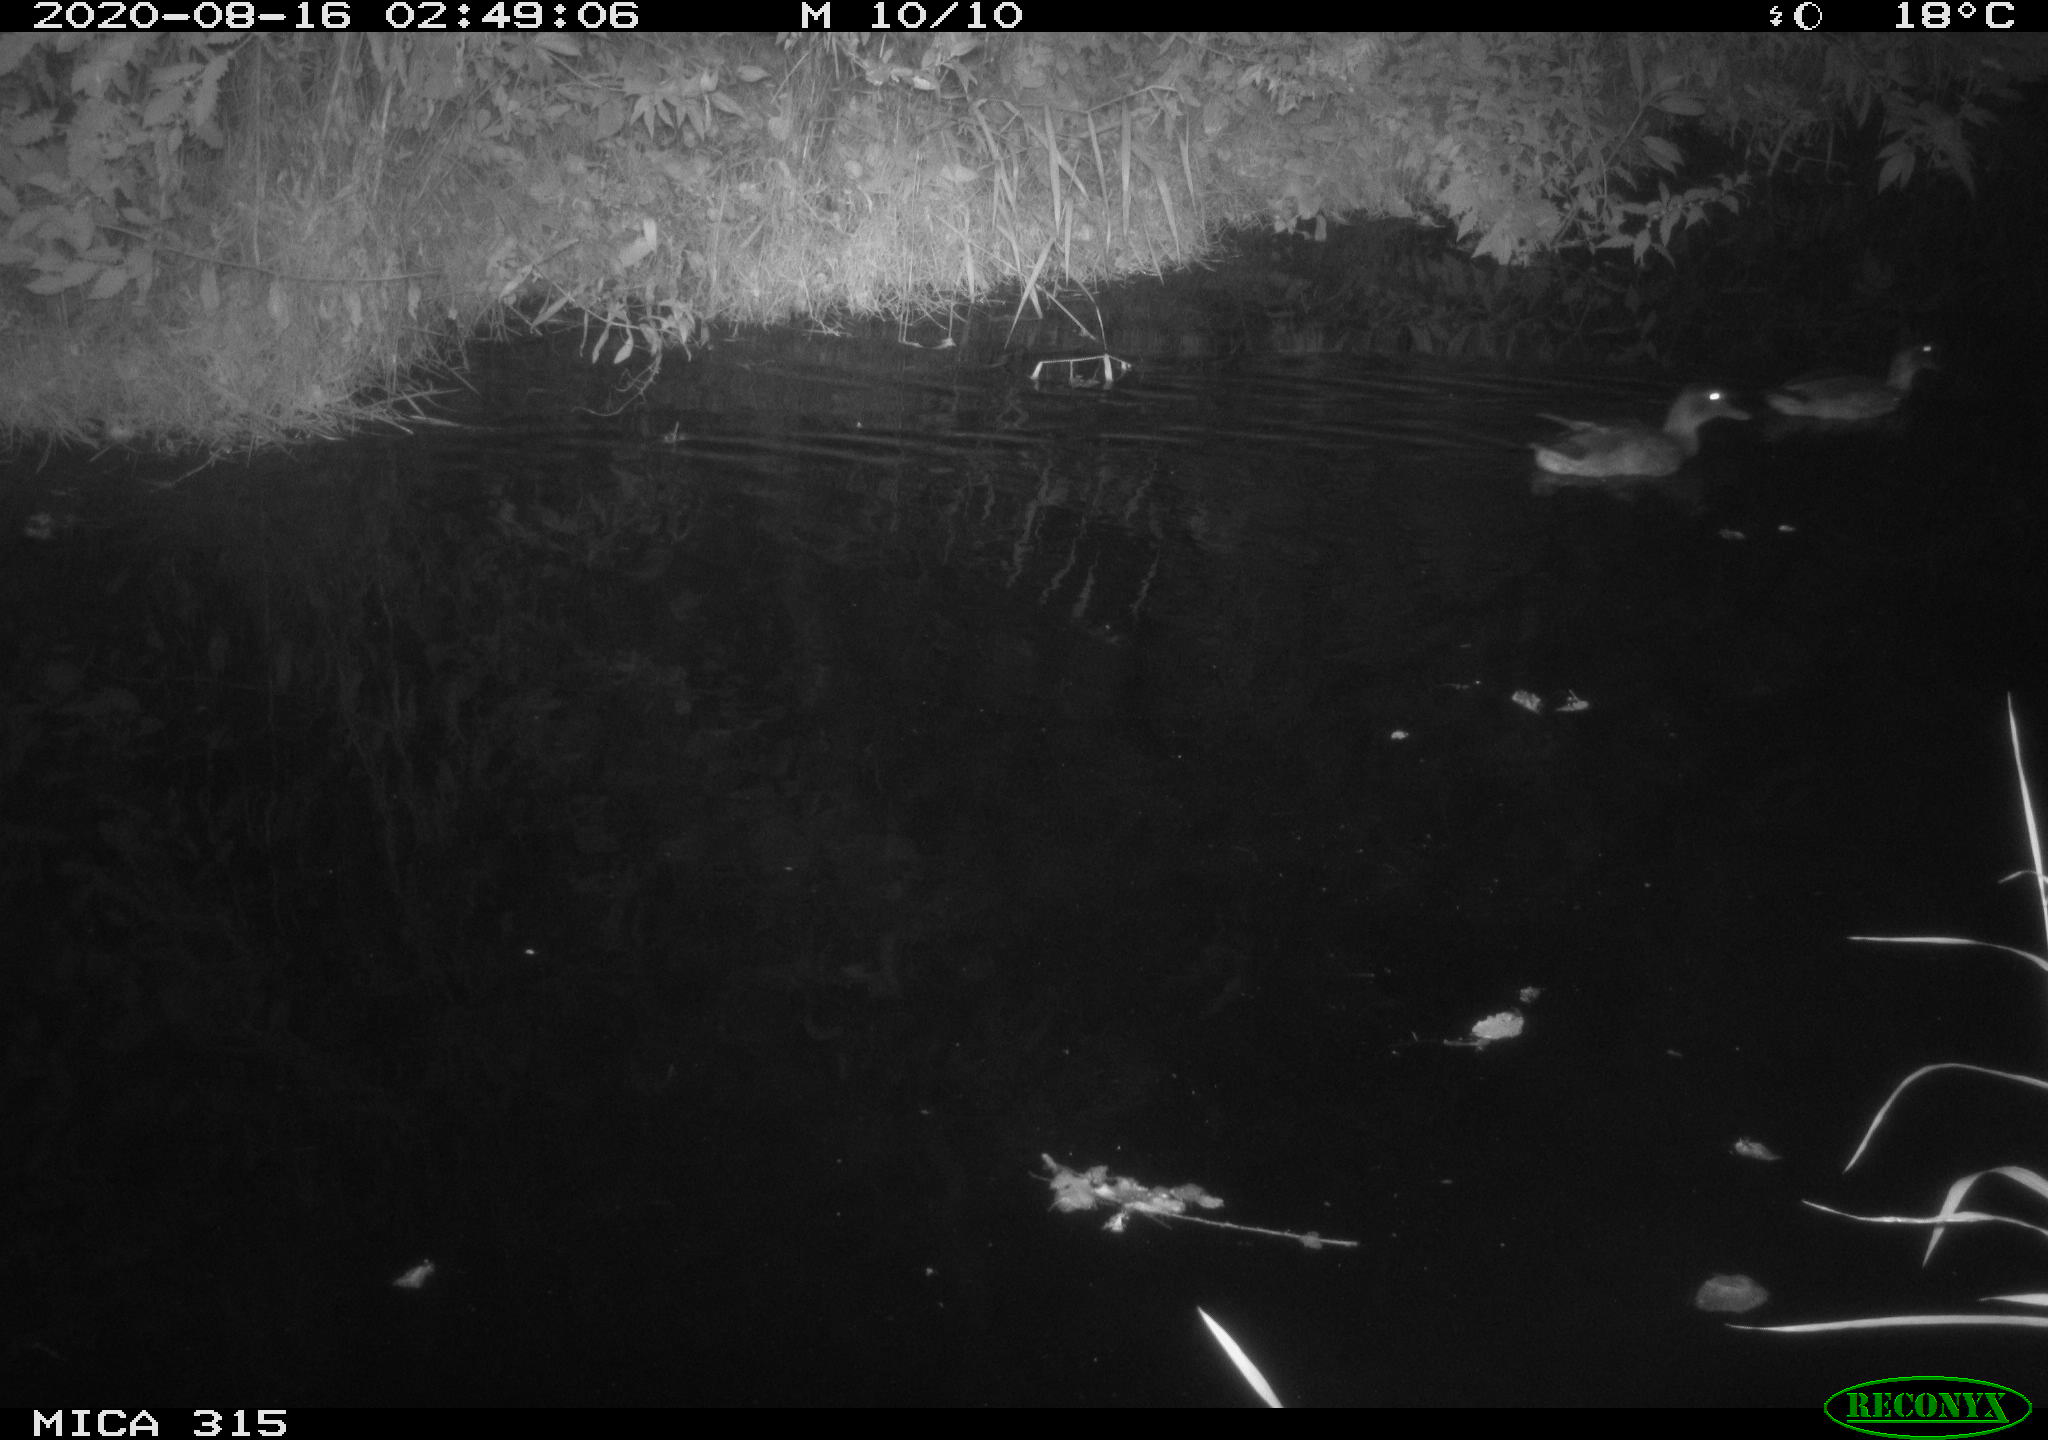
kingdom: Animalia
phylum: Chordata
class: Aves
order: Anseriformes
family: Anatidae
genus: Anas
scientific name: Anas platyrhynchos
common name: Mallard
